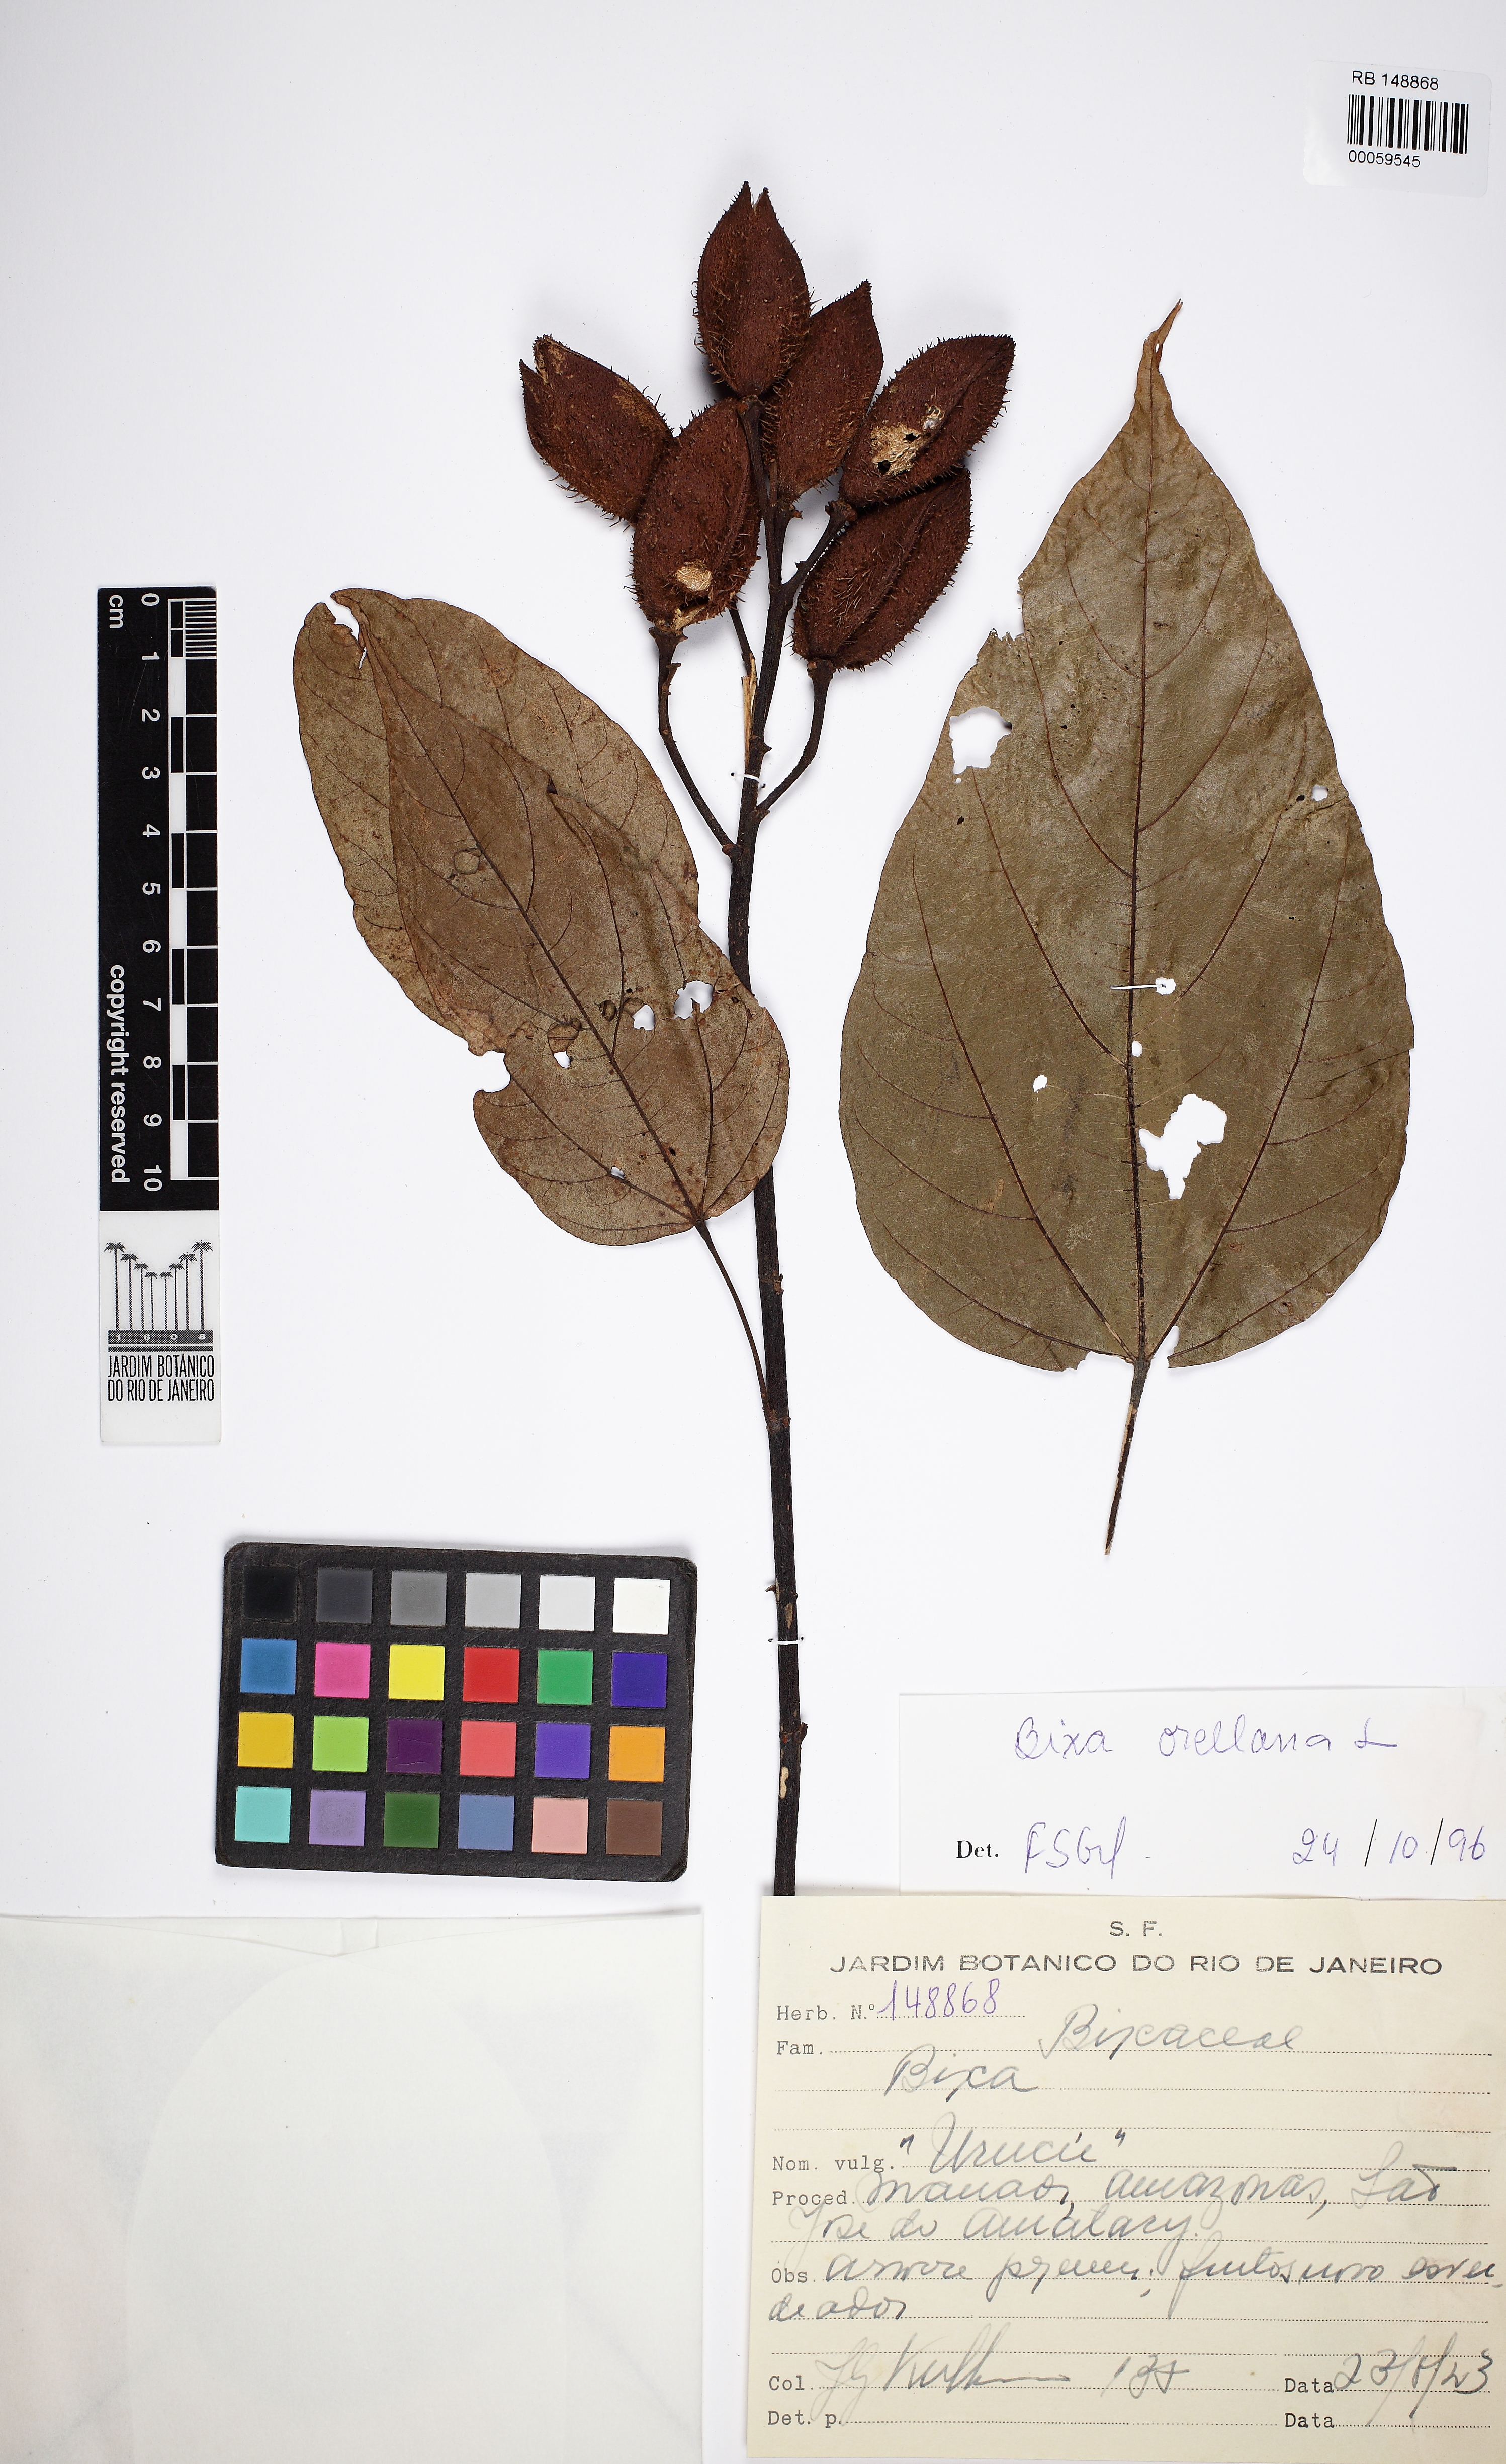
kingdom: Plantae
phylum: Tracheophyta
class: Magnoliopsida
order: Malvales
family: Bixaceae
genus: Bixa
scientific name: Bixa orellana
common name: Lipsticktree
